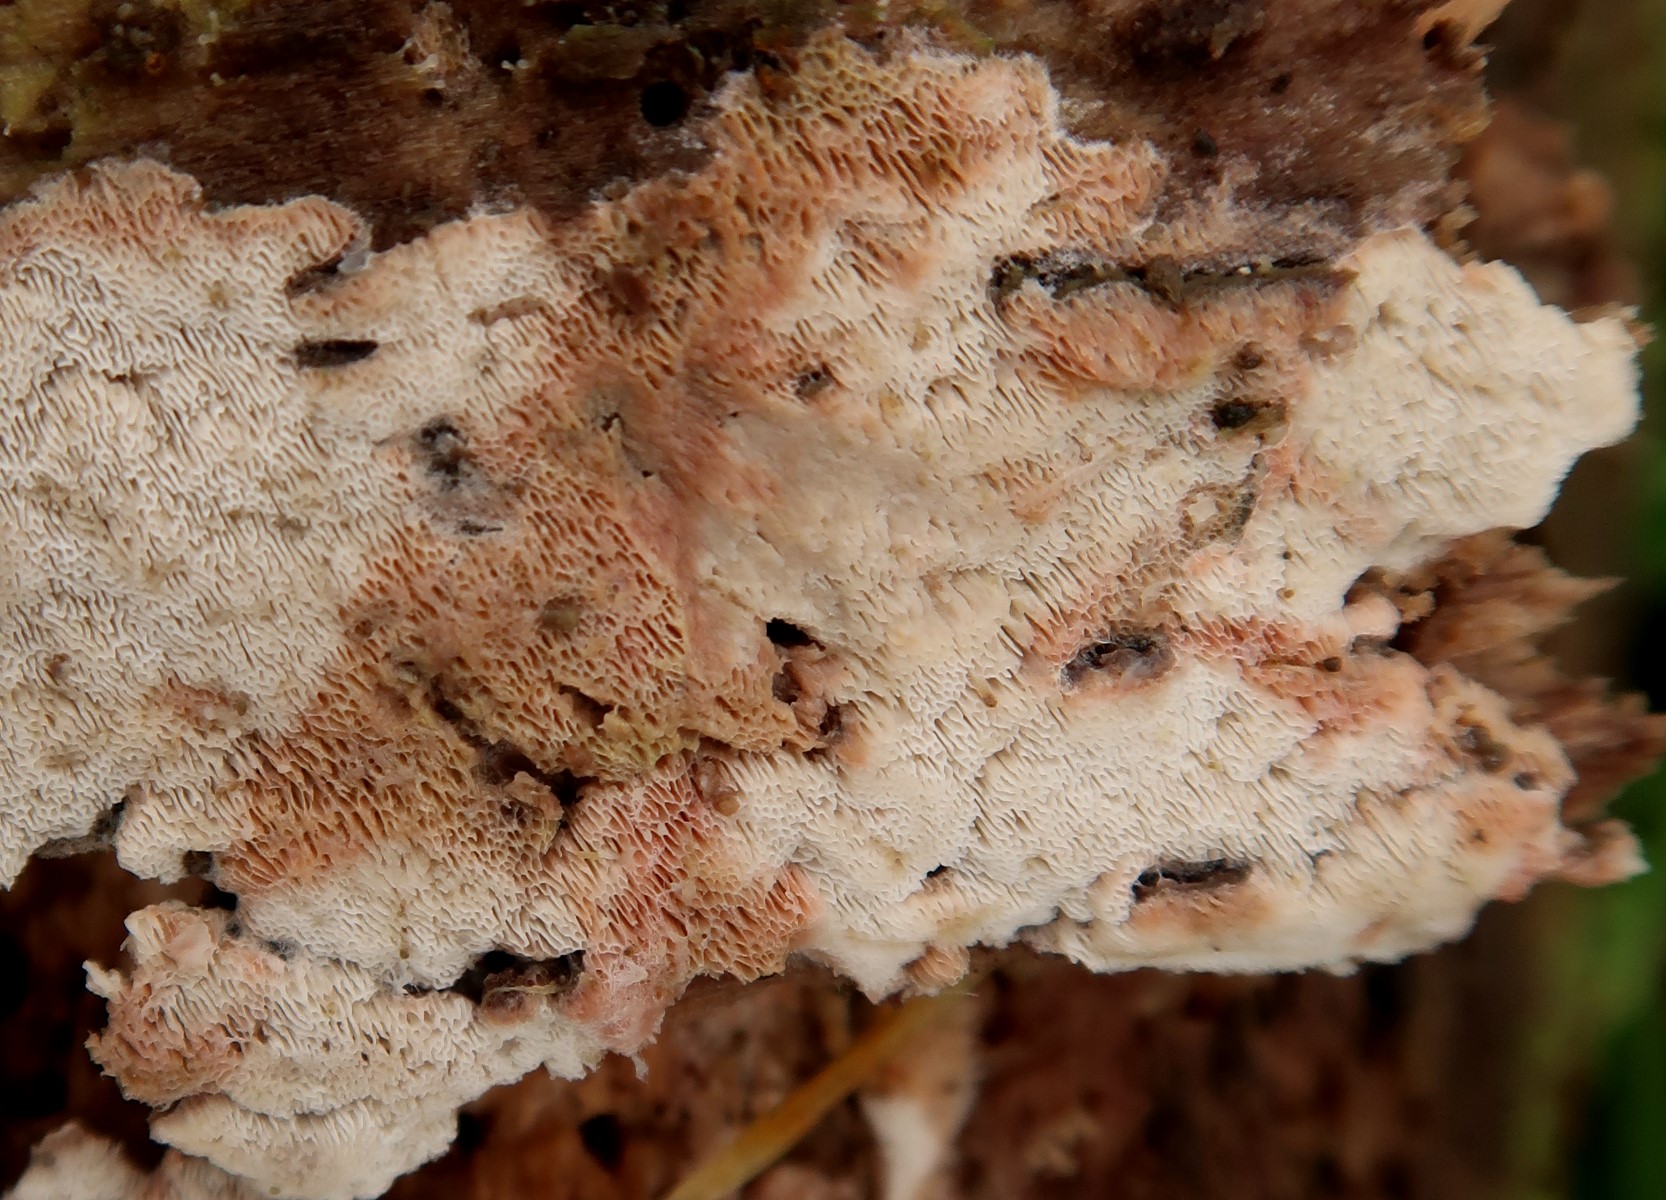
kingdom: Fungi
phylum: Basidiomycota
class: Agaricomycetes
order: Polyporales
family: Meripilaceae
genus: Rigidoporus
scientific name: Rigidoporus sanguinolentus
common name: blod-skorpeporesvamp
